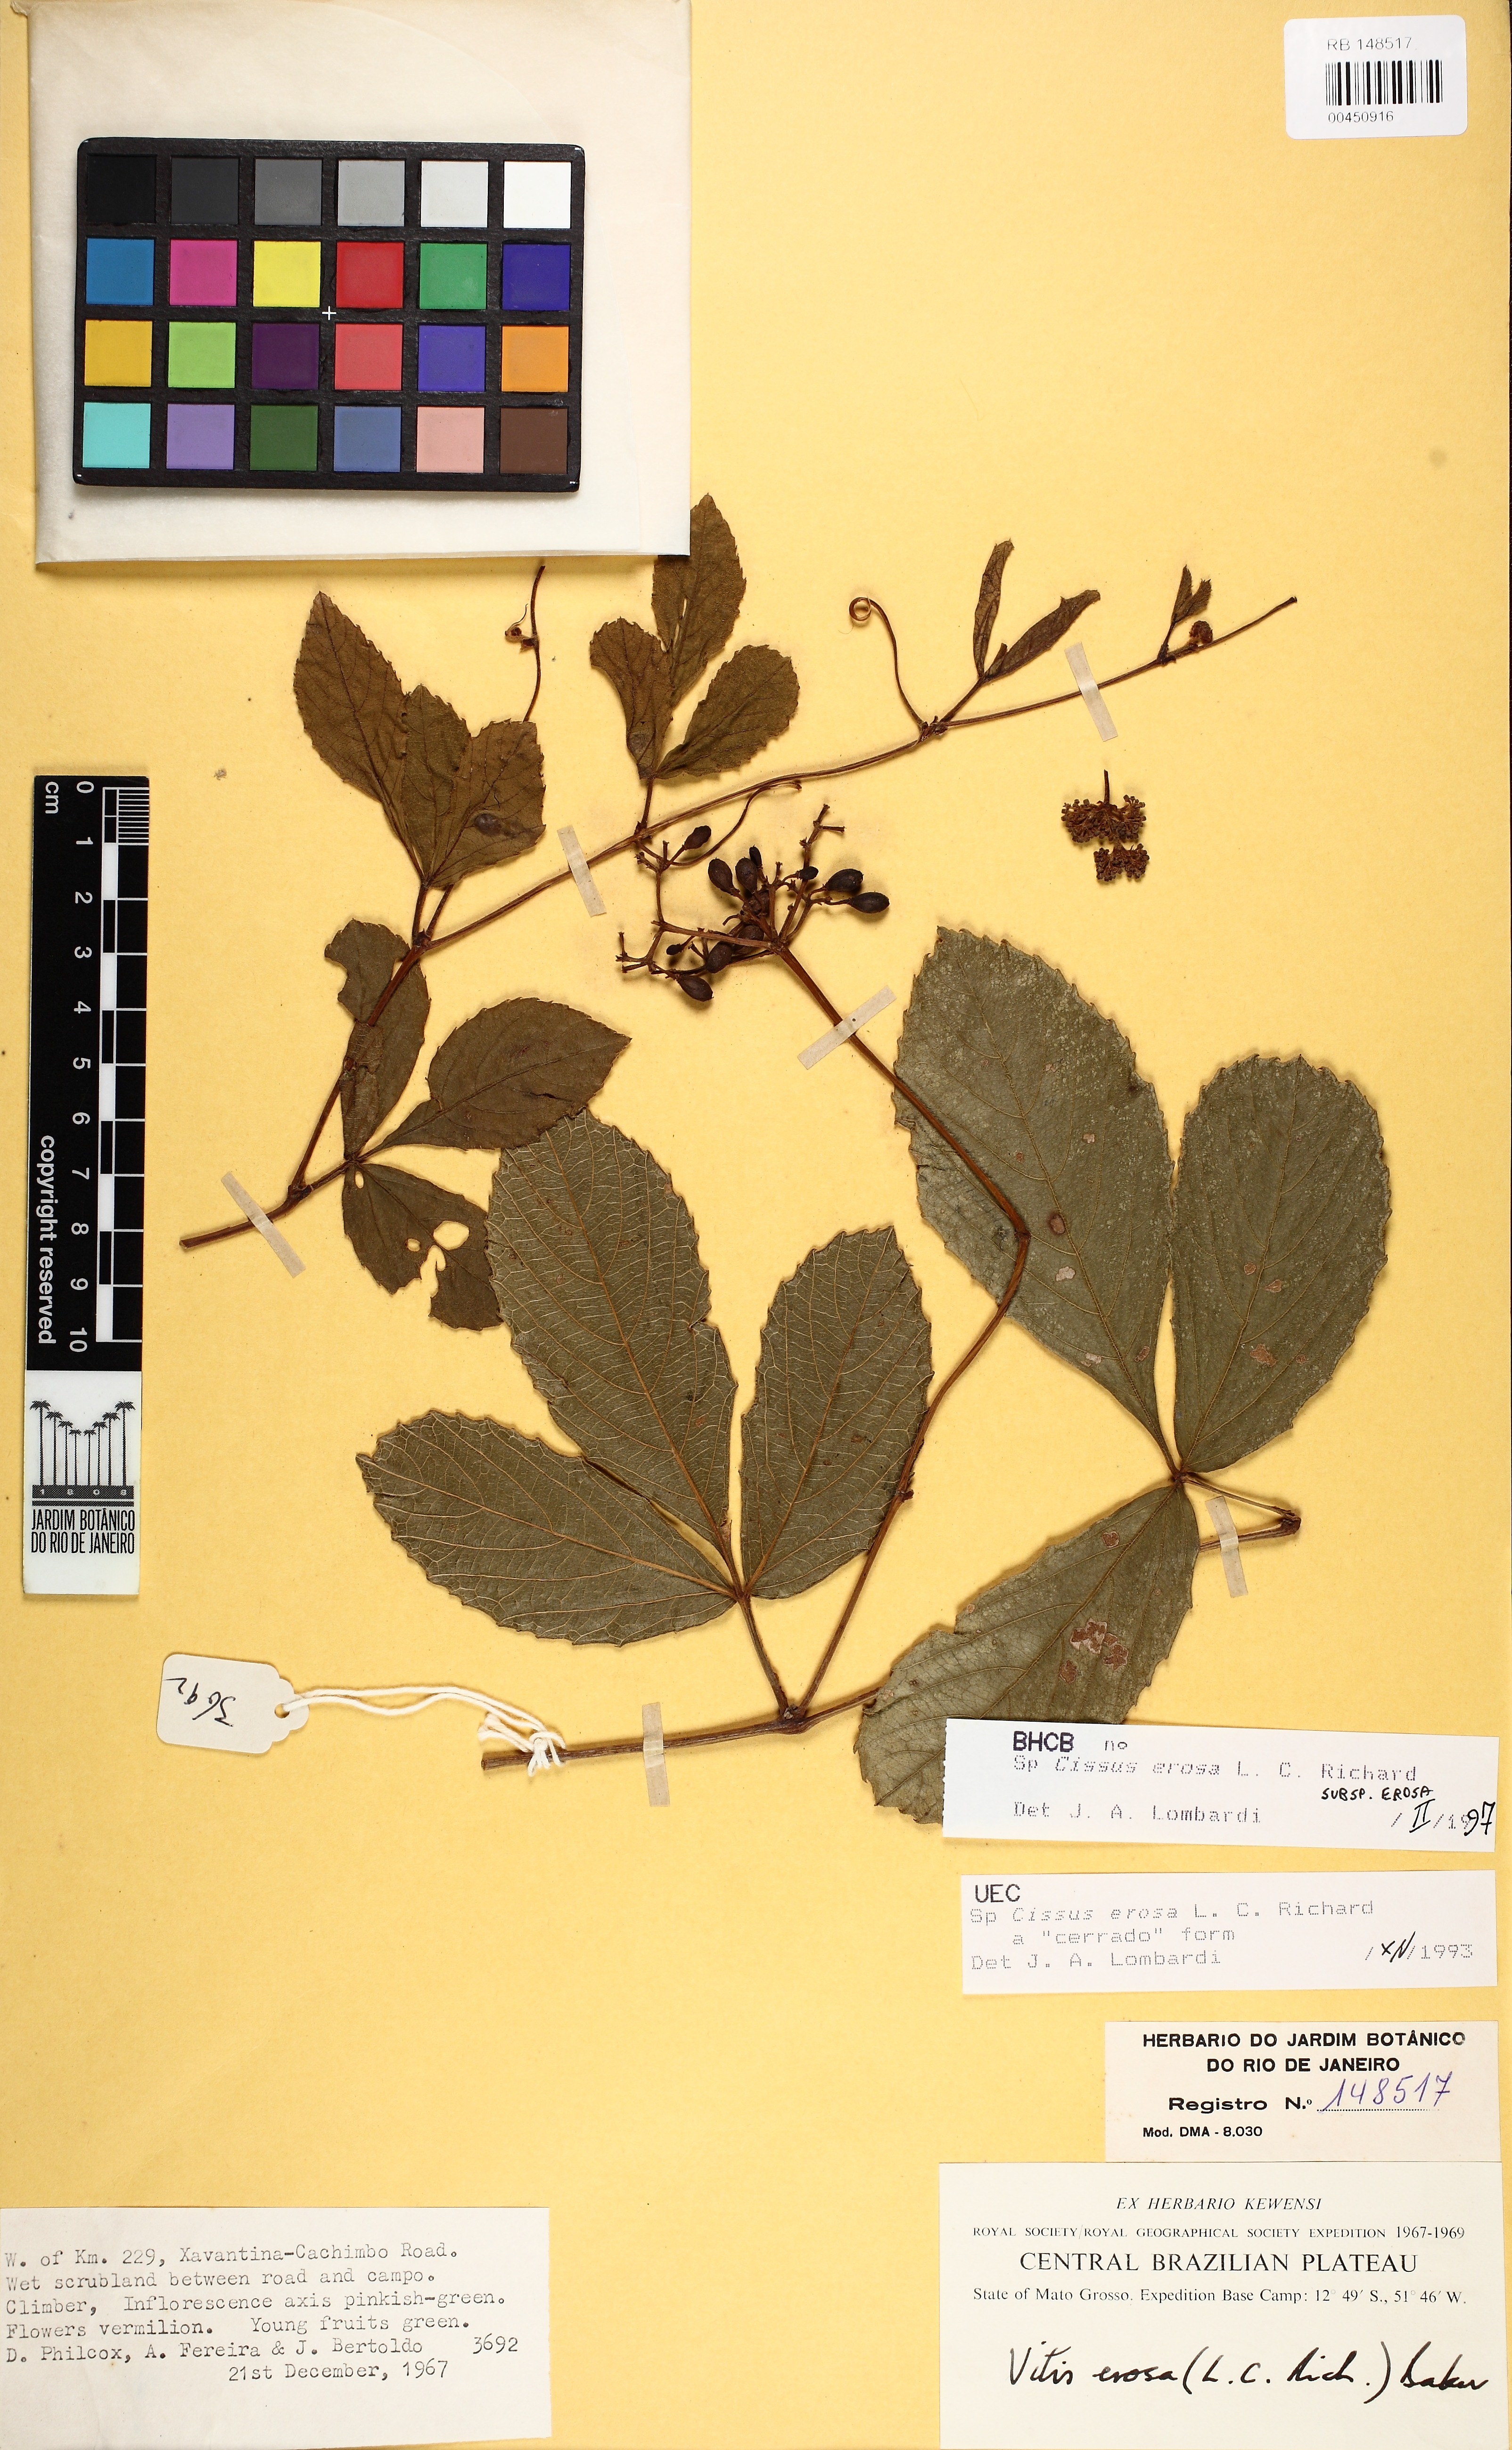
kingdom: Plantae
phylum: Tracheophyta
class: Magnoliopsida
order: Vitales
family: Vitaceae
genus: Cissus
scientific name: Cissus erosa
